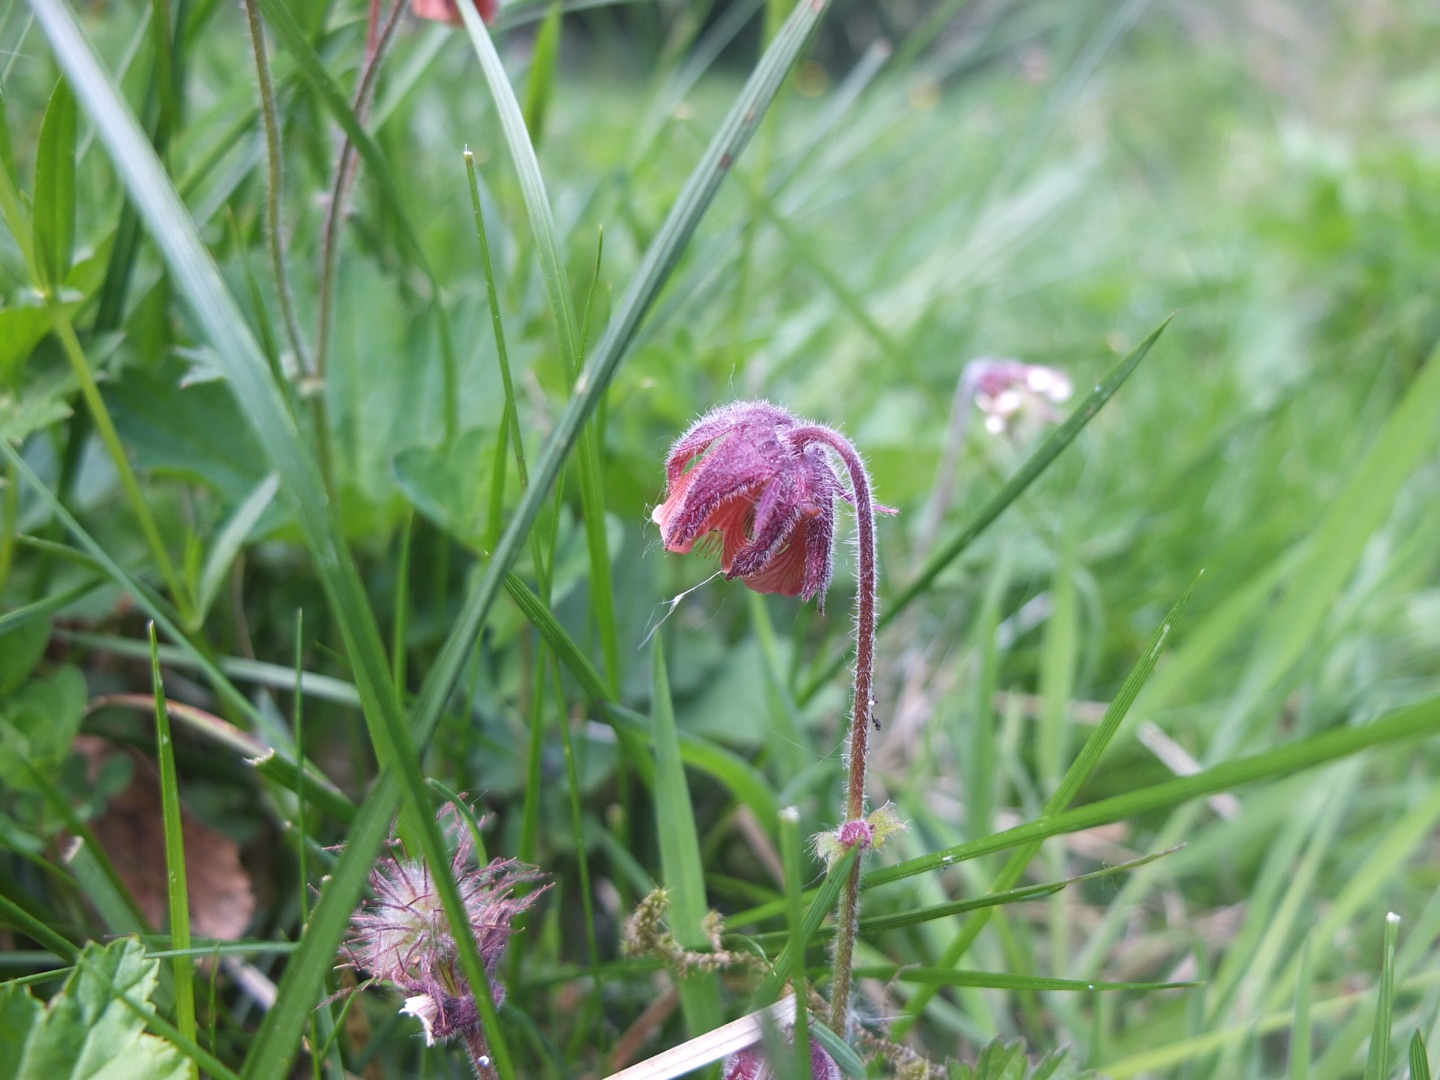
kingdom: Plantae
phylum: Tracheophyta
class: Magnoliopsida
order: Rosales
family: Rosaceae
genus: Geum
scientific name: Geum rivale
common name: Eng-nellikerod
